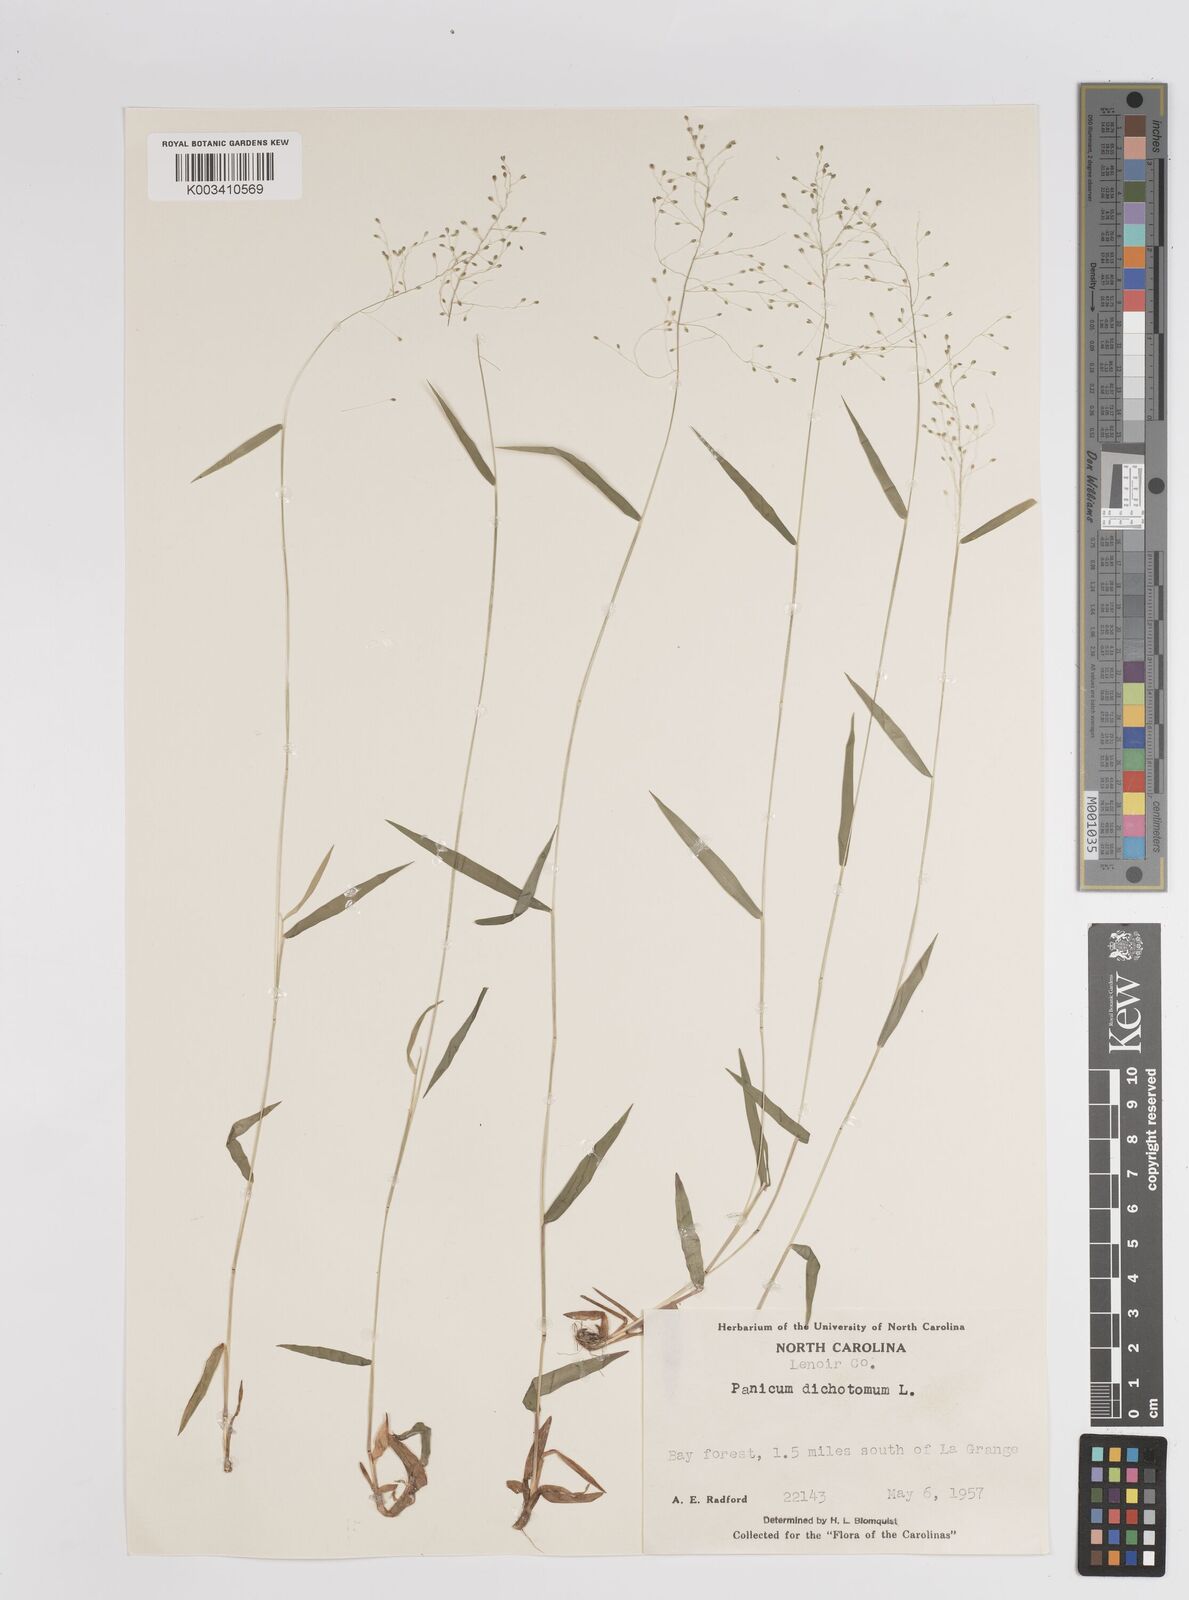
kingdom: Plantae
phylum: Tracheophyta
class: Liliopsida
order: Poales
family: Poaceae
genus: Dichanthelium
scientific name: Dichanthelium dichotomum
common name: Cypress panicgrass
